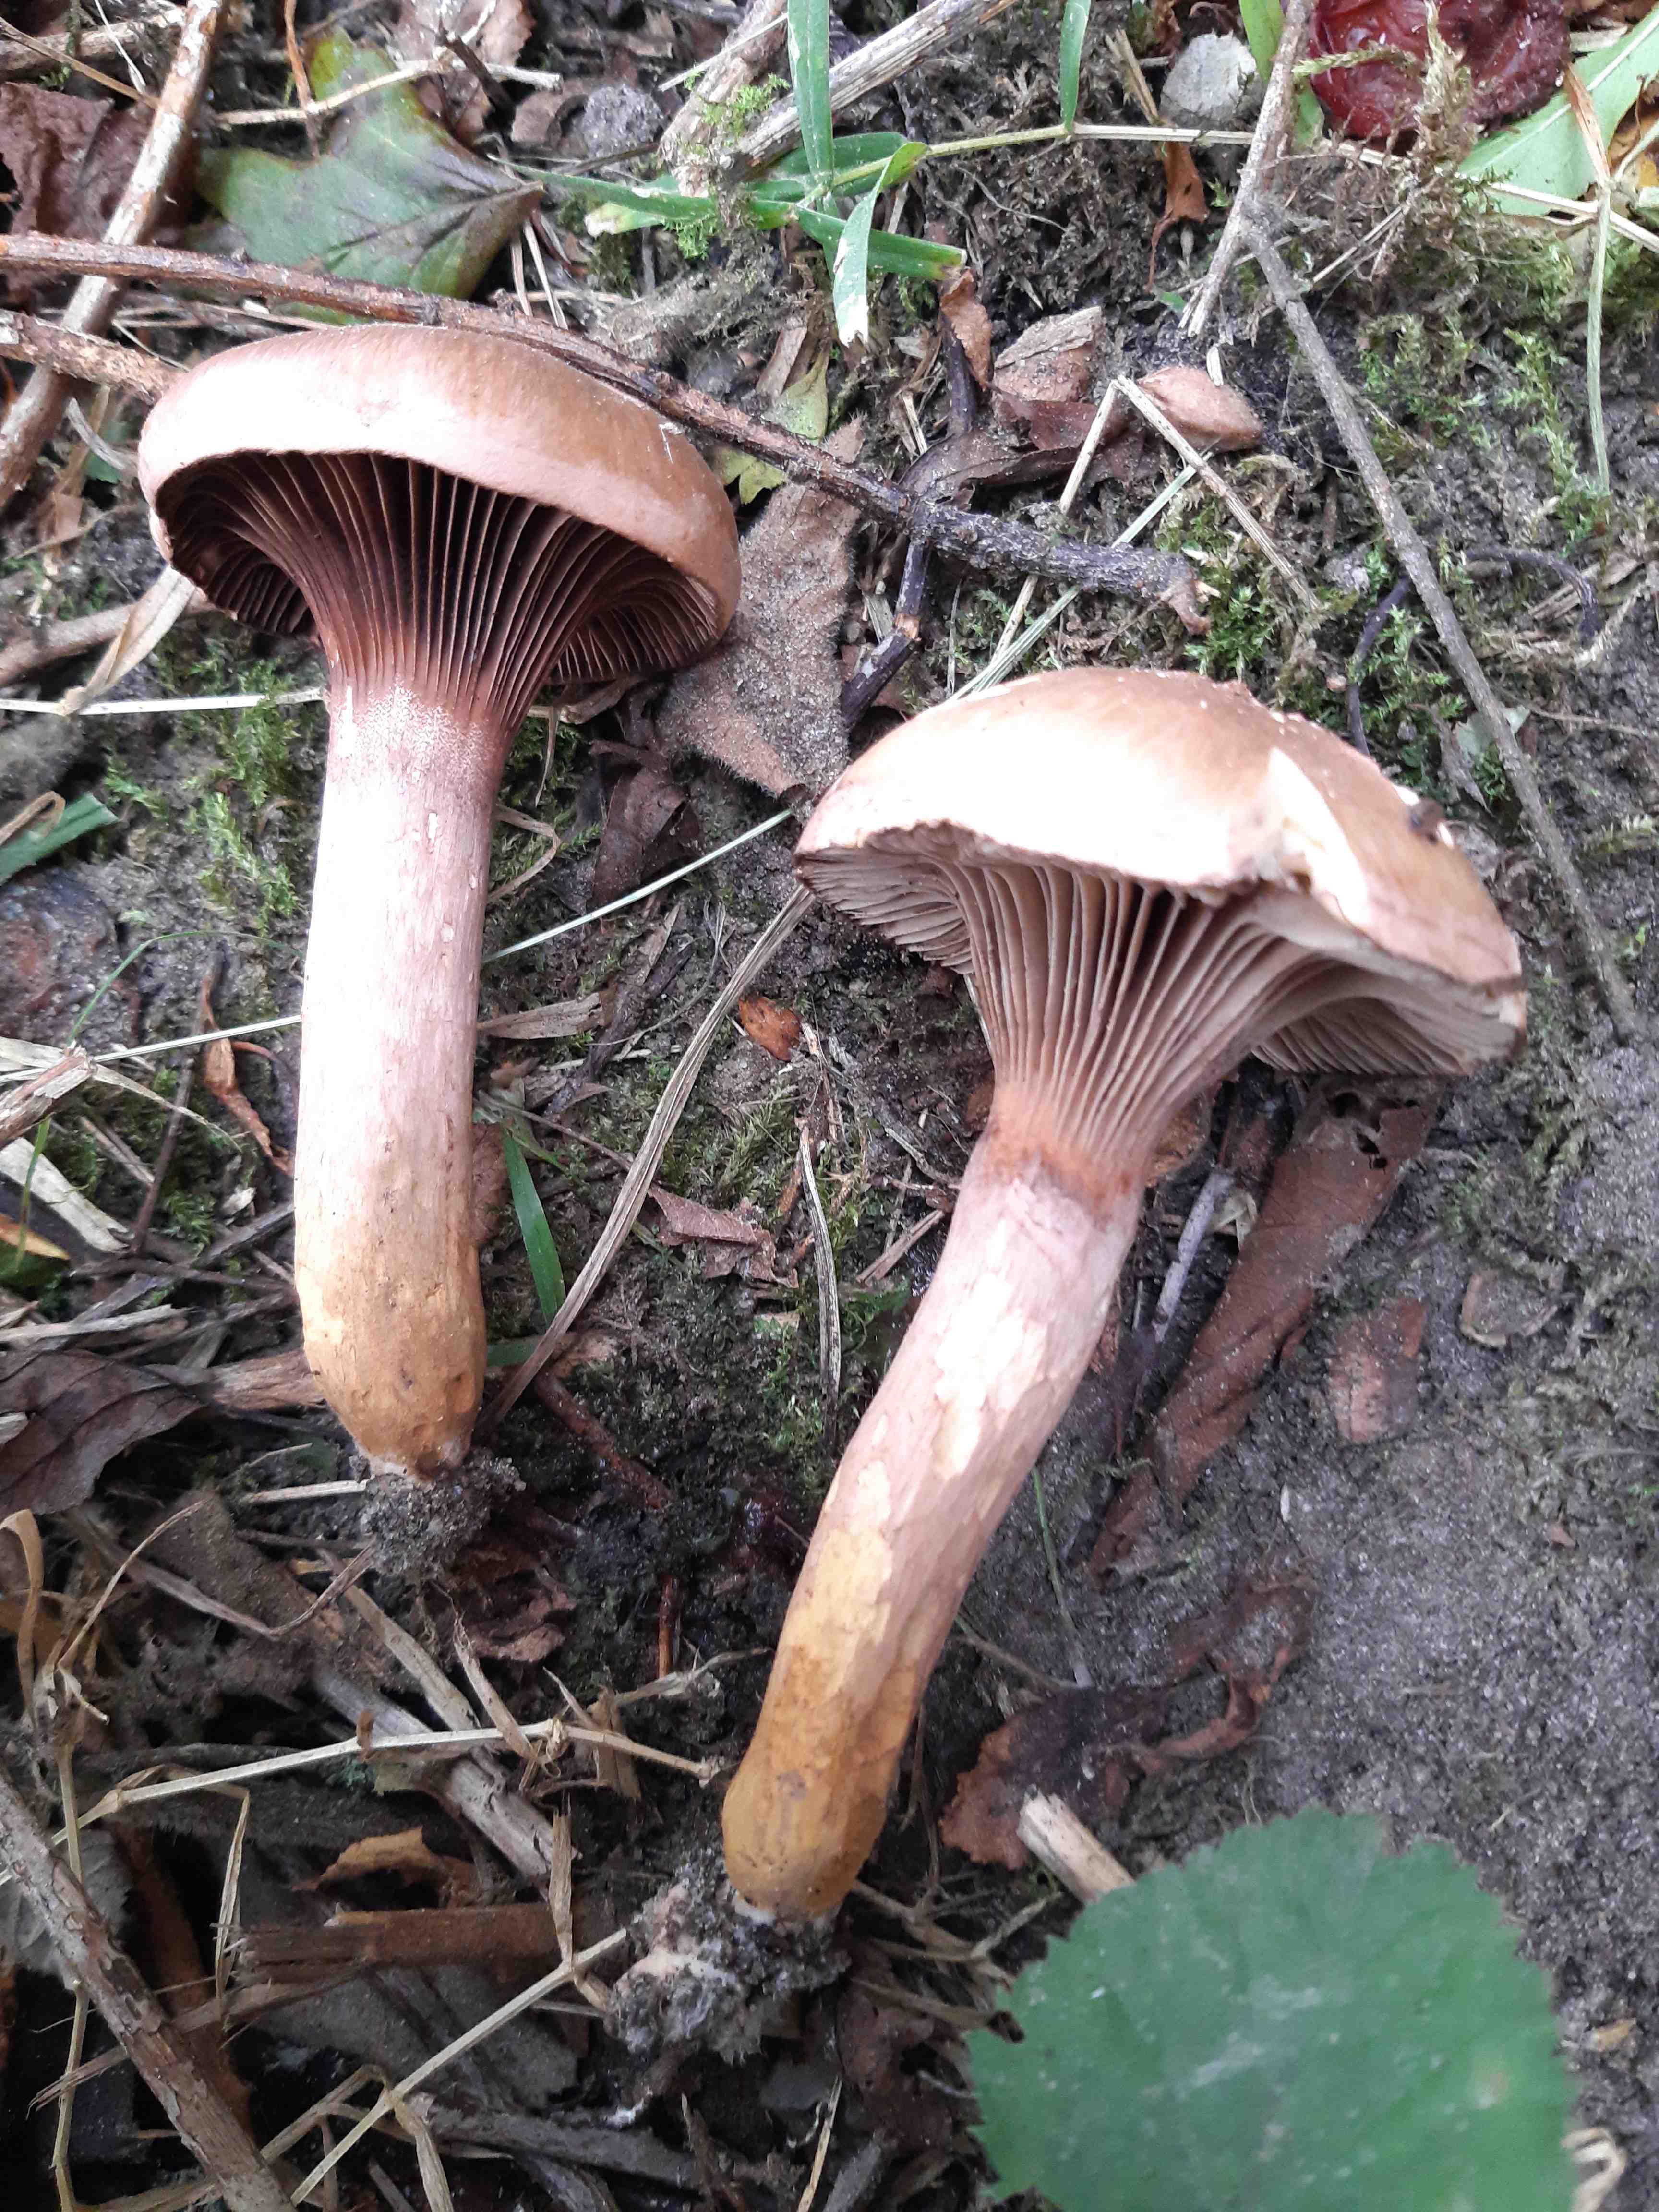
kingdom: Fungi
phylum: Basidiomycota
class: Agaricomycetes
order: Boletales
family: Gomphidiaceae
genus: Chroogomphus
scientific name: Chroogomphus rutilus
